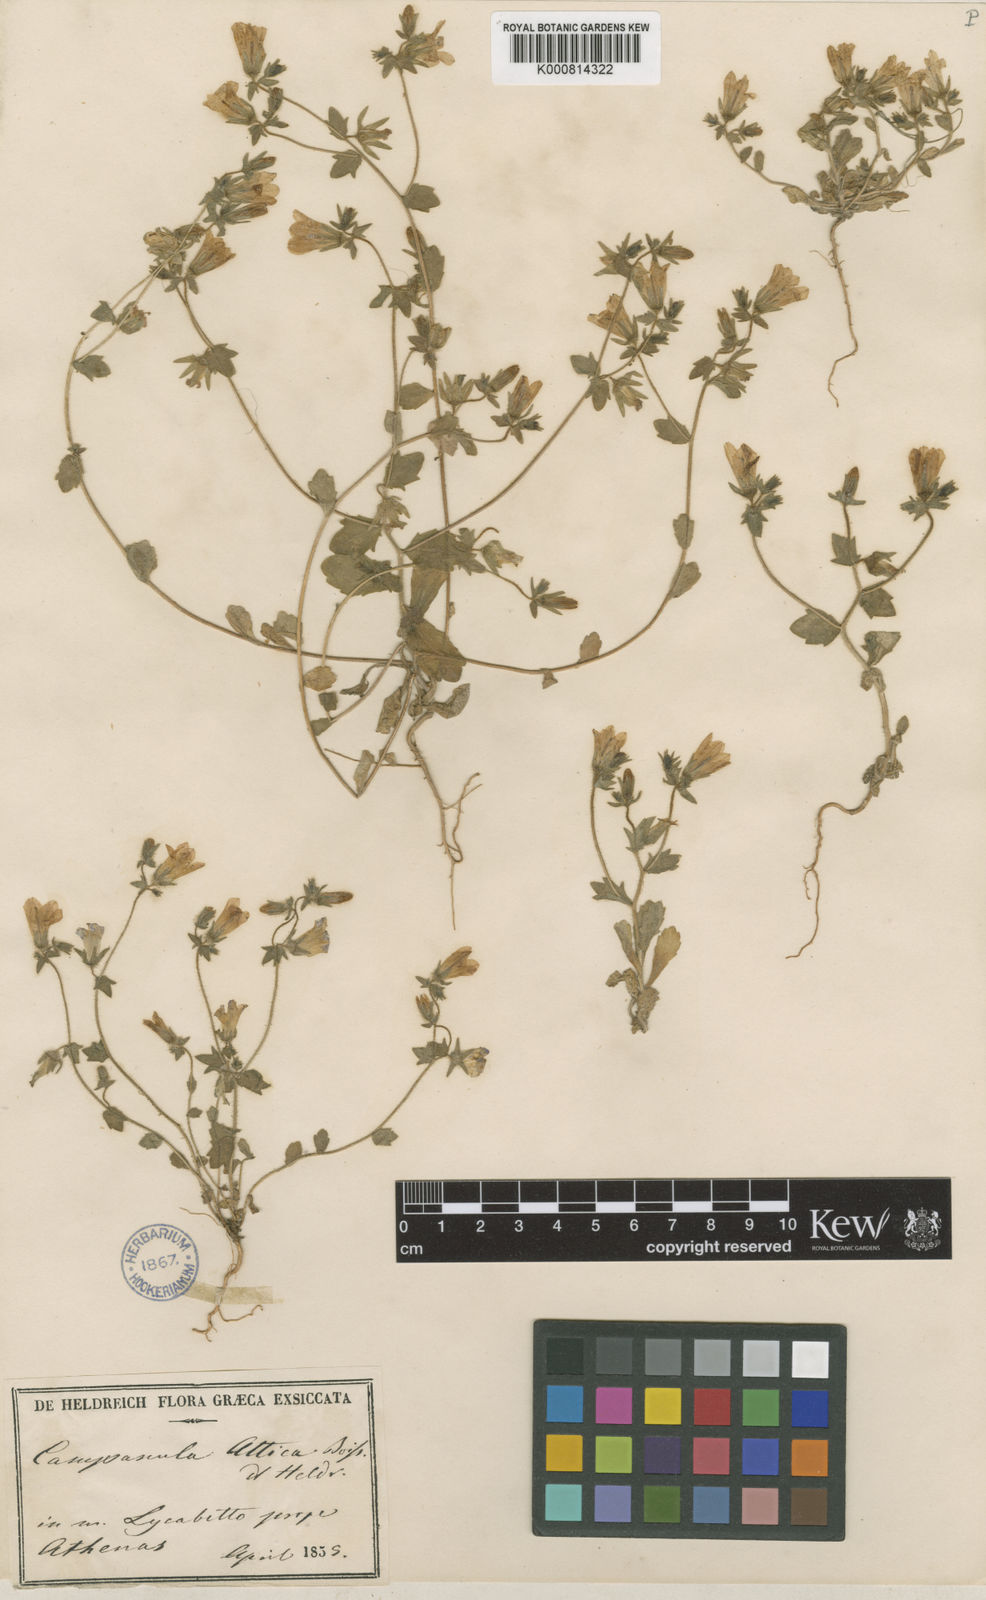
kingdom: Plantae
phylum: Tracheophyta
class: Magnoliopsida
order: Asterales
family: Campanulaceae
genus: Campanula
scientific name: Campanula
